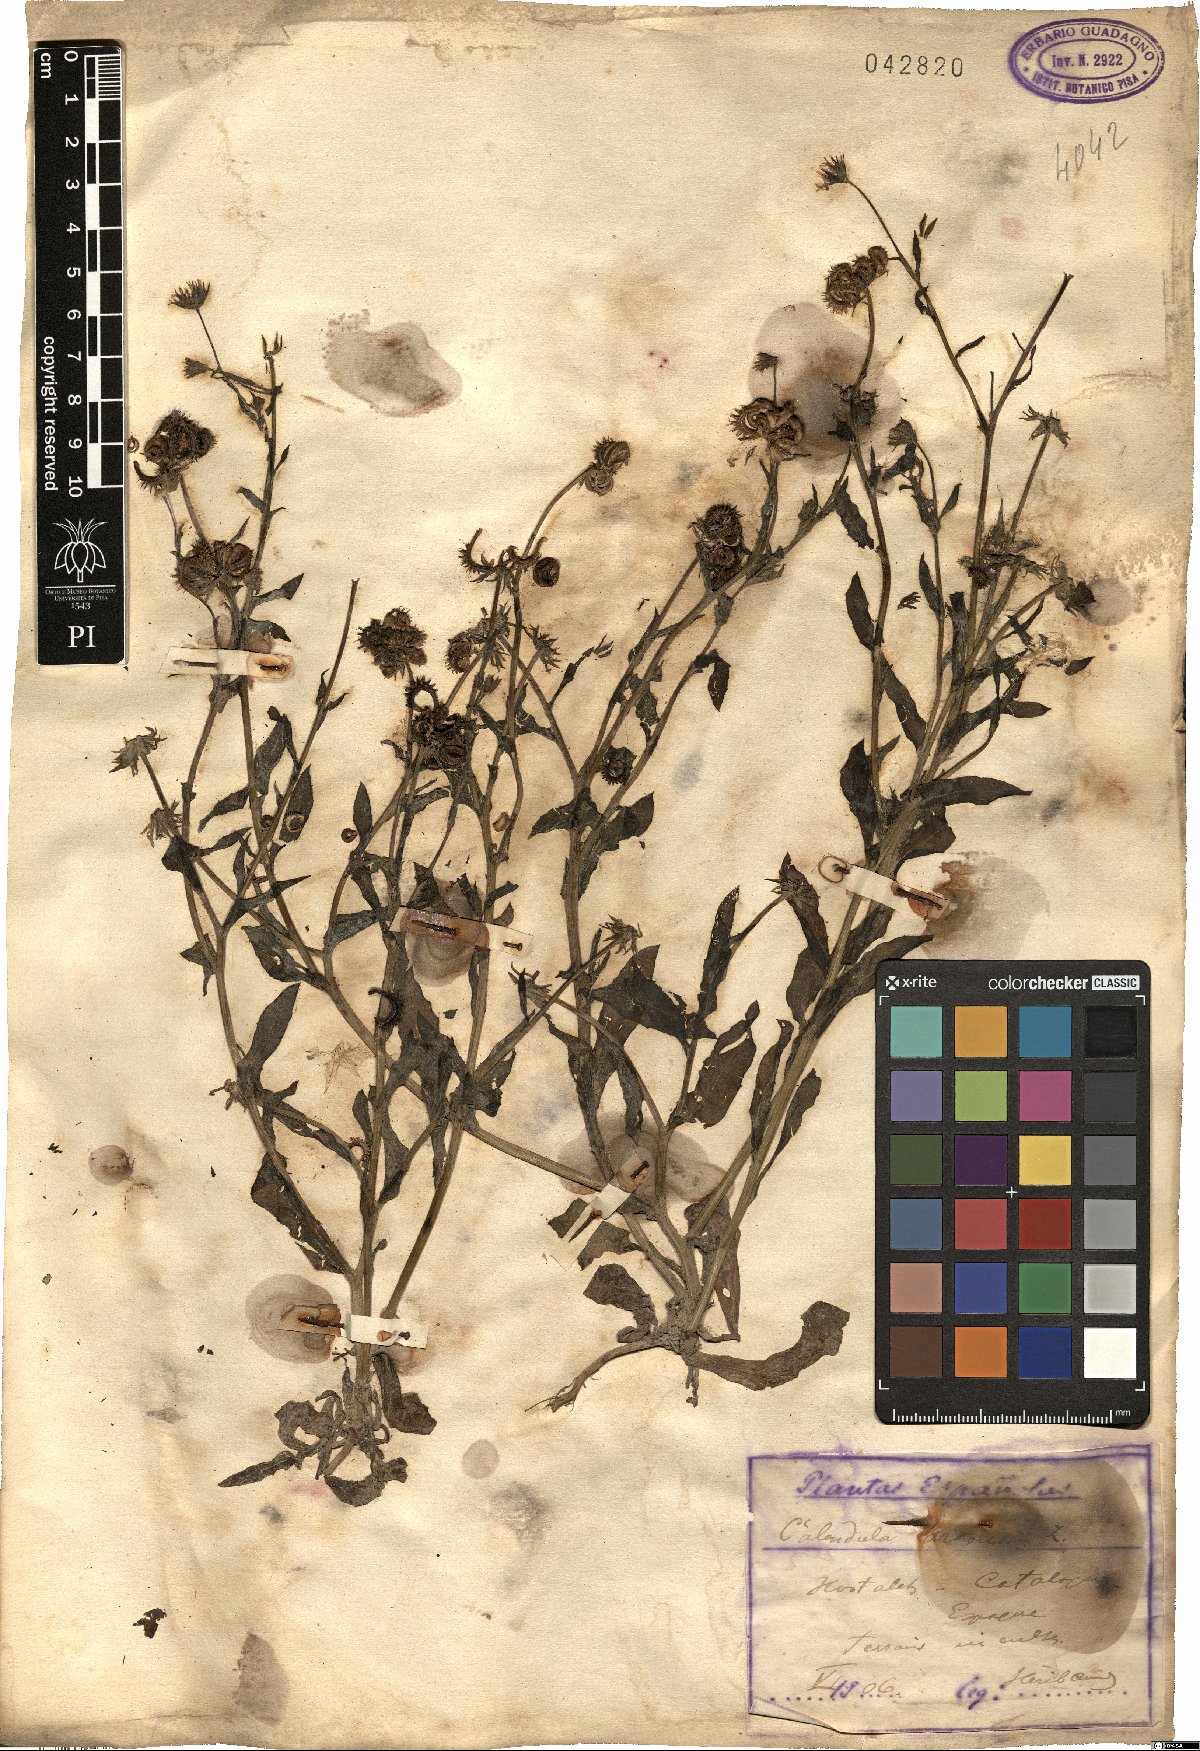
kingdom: Plantae
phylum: Tracheophyta
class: Magnoliopsida
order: Asterales
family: Asteraceae
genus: Calendula
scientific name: Calendula arvensis
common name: Field marigold
